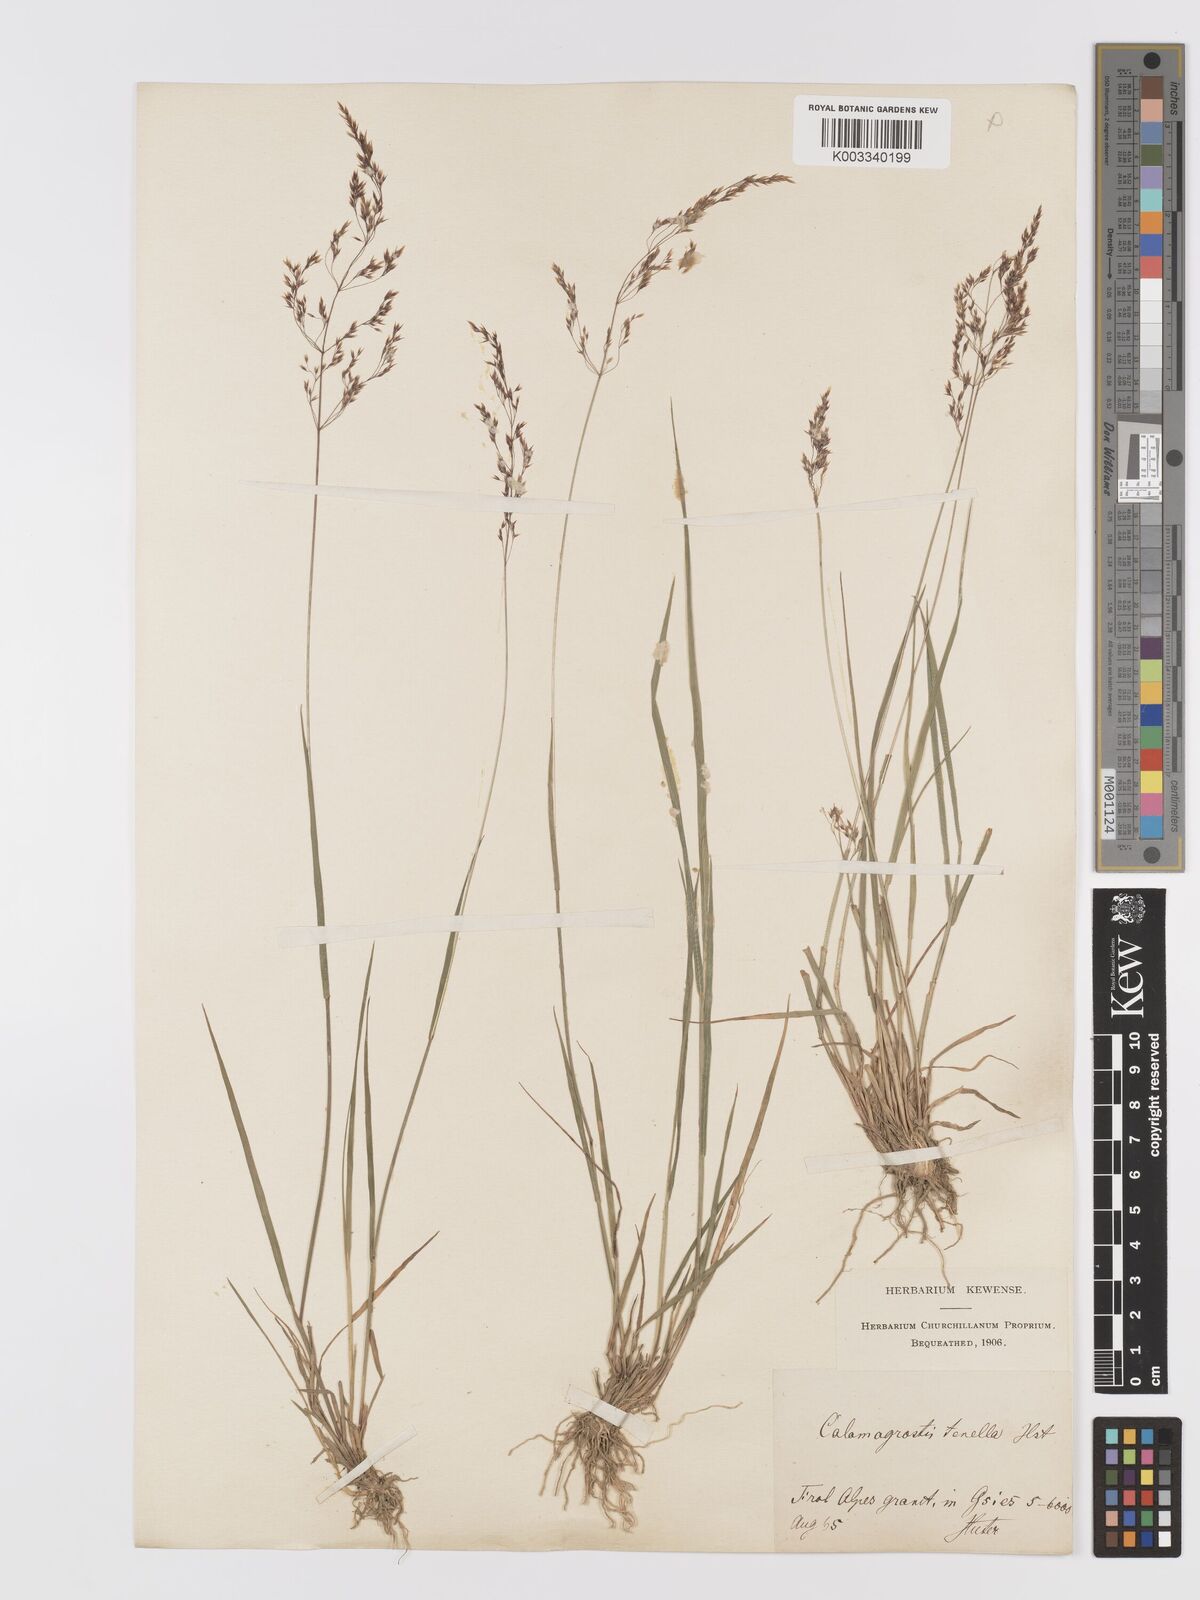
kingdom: Plantae
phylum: Tracheophyta
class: Liliopsida
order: Poales
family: Poaceae
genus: Agrostis
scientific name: Agrostis schraderiana
